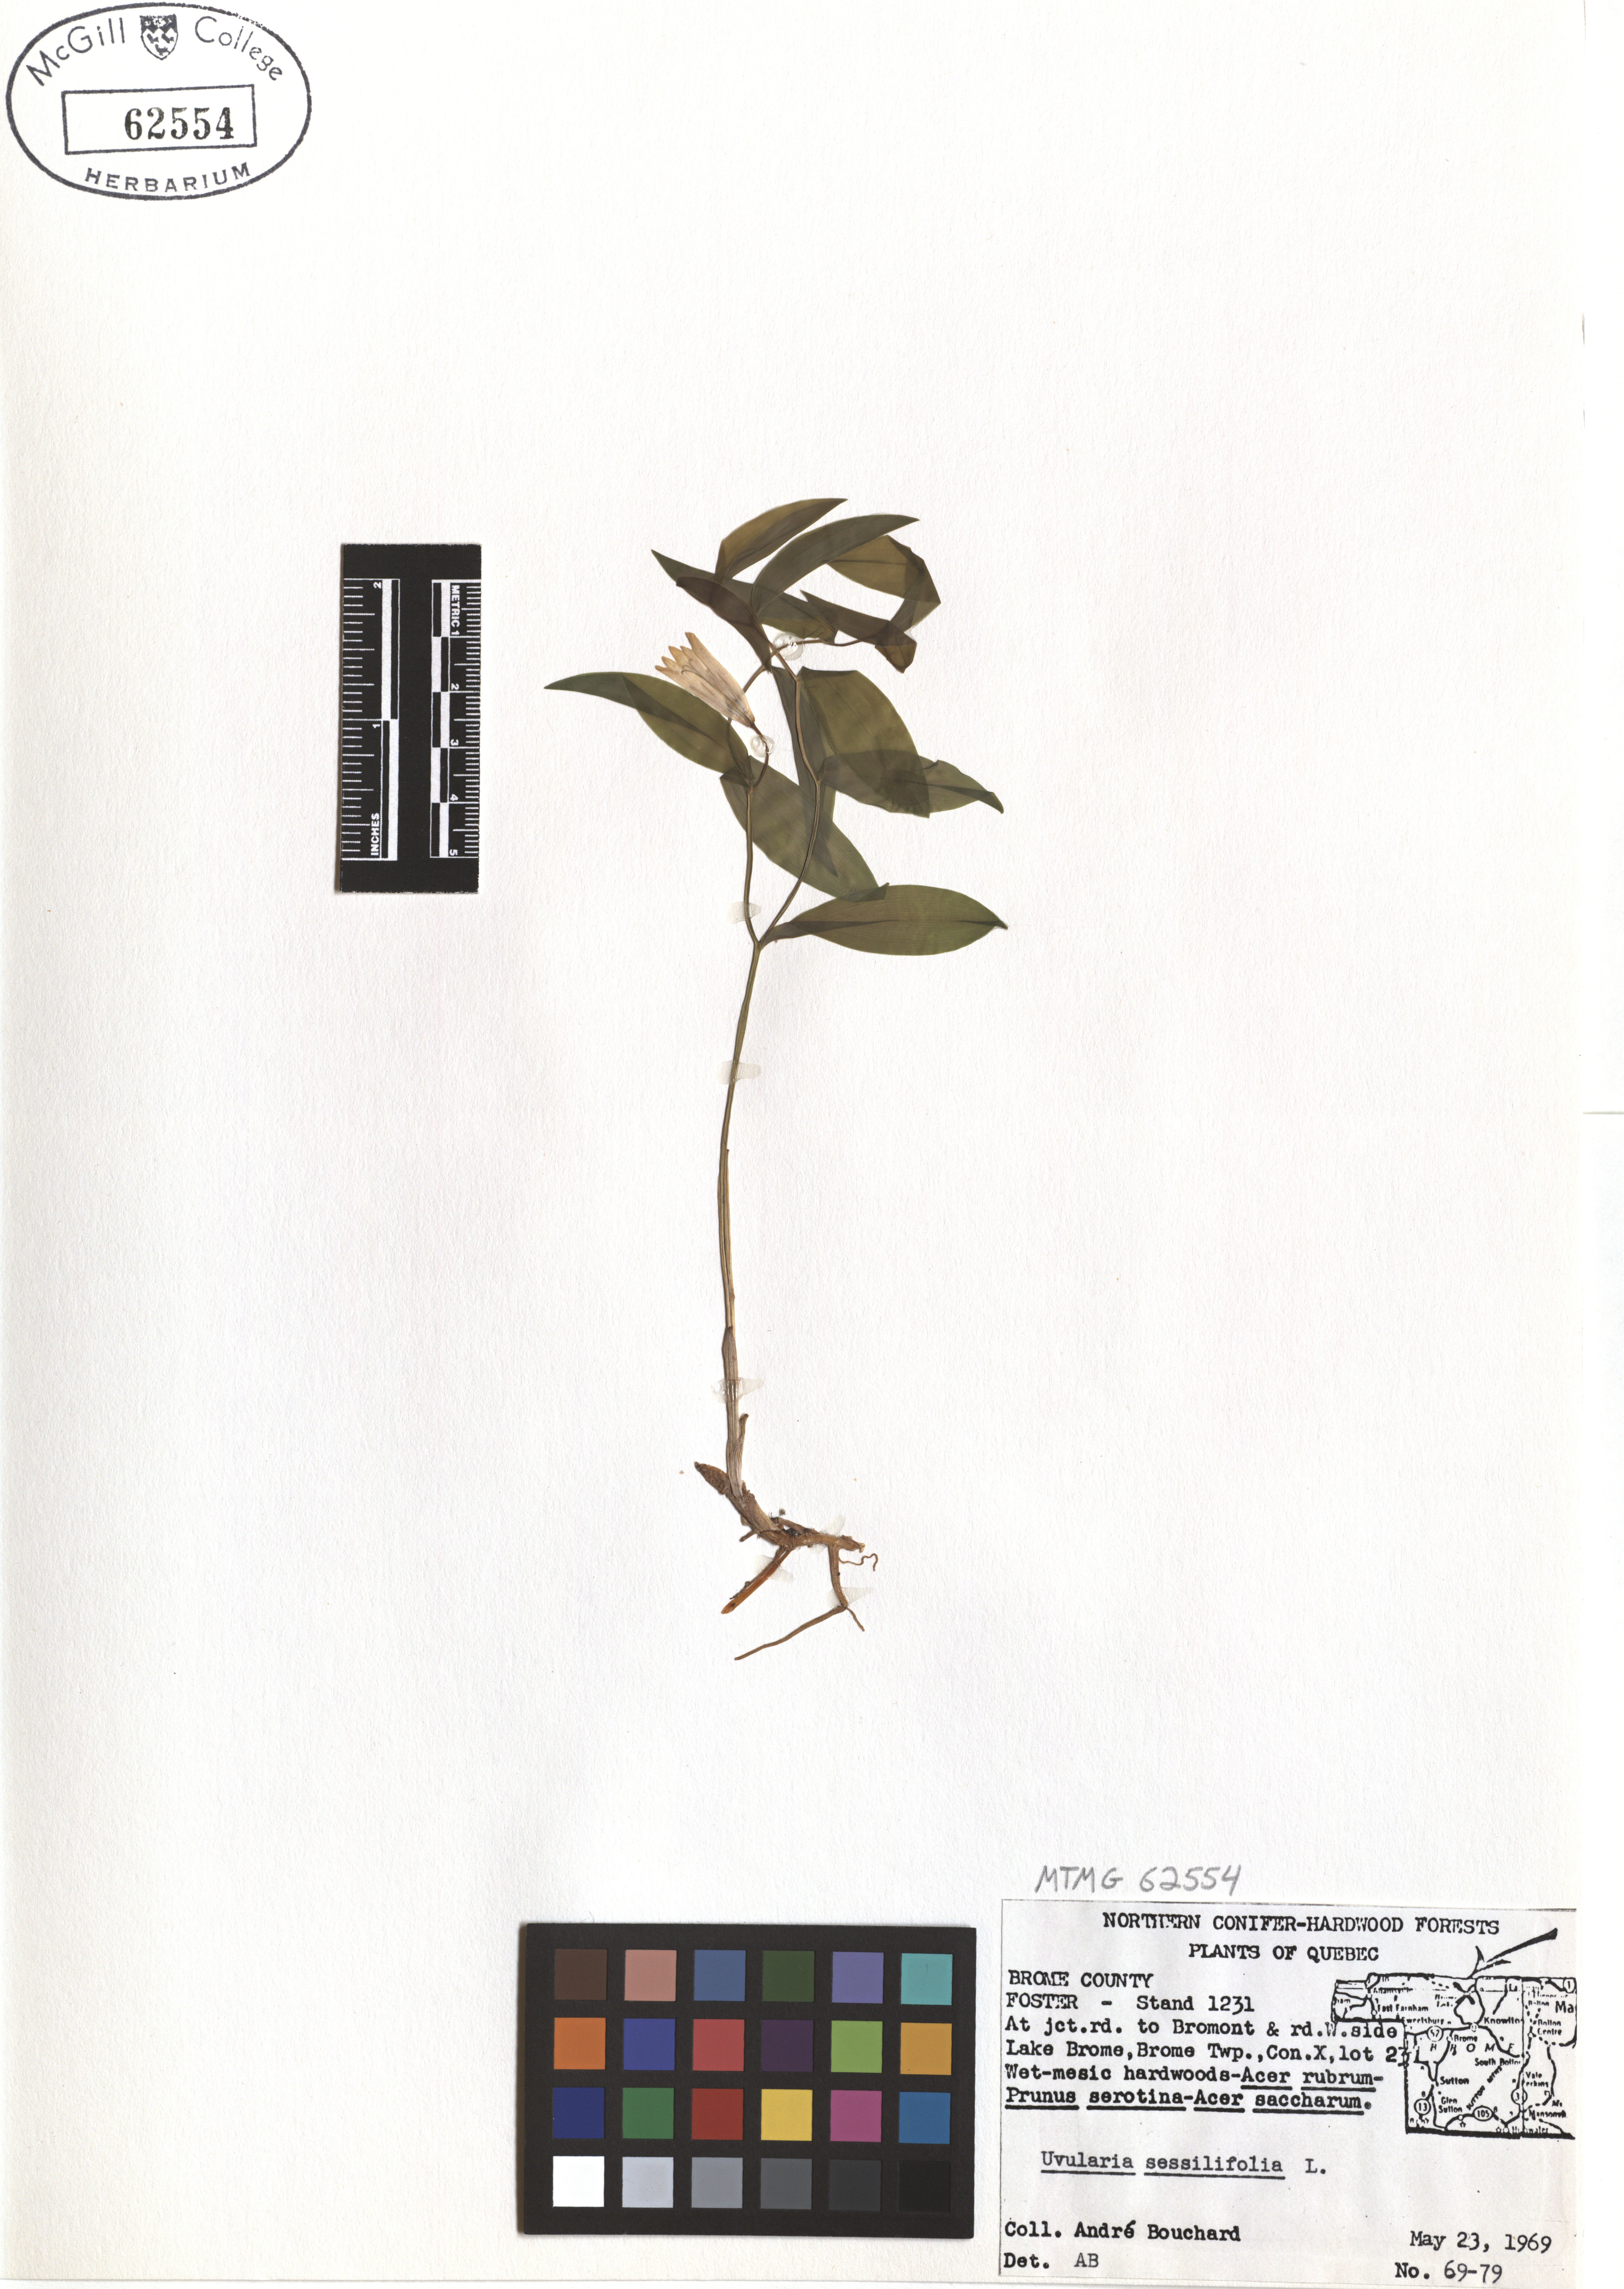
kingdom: Plantae
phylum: Tracheophyta
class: Liliopsida
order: Liliales
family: Colchicaceae
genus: Uvularia
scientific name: Uvularia sessilifolia
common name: Straw-lily
